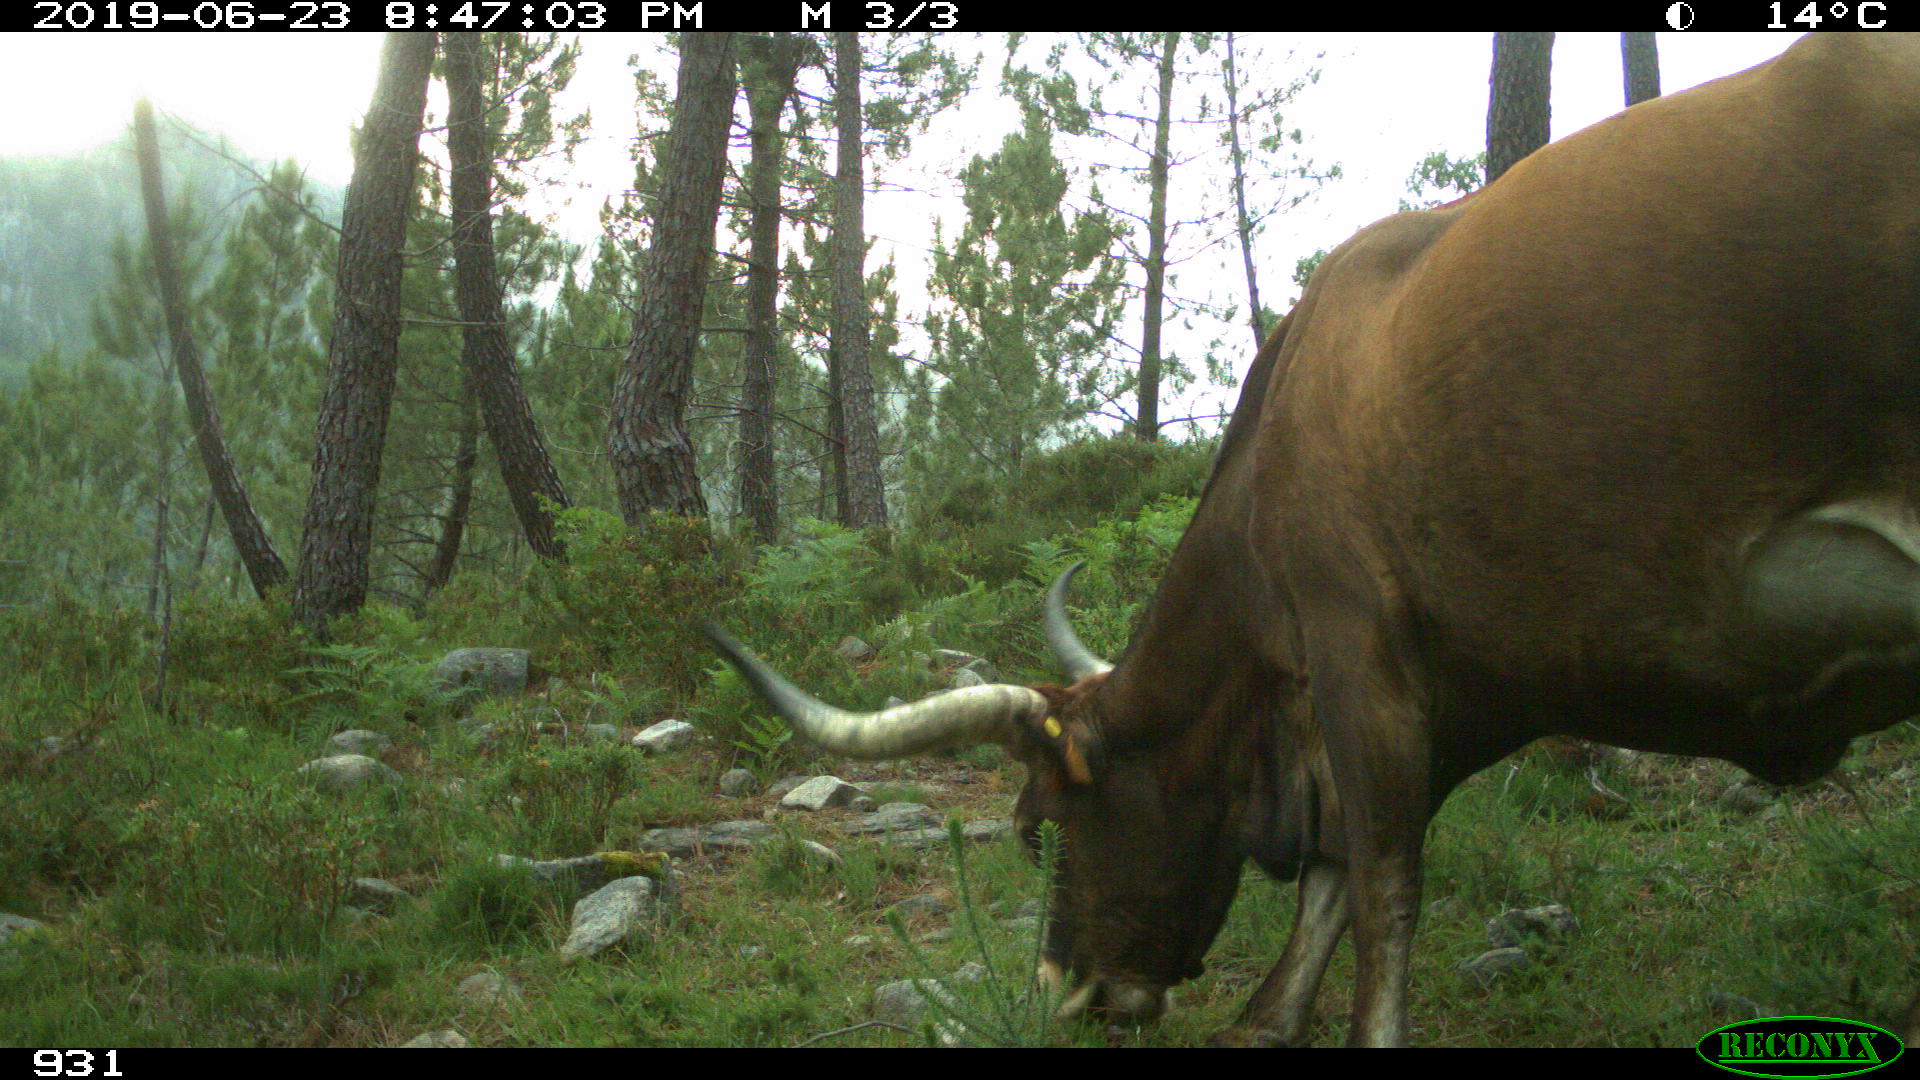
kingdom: Animalia
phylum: Chordata
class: Mammalia
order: Artiodactyla
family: Bovidae
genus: Bos
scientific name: Bos taurus
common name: Domesticated cattle
